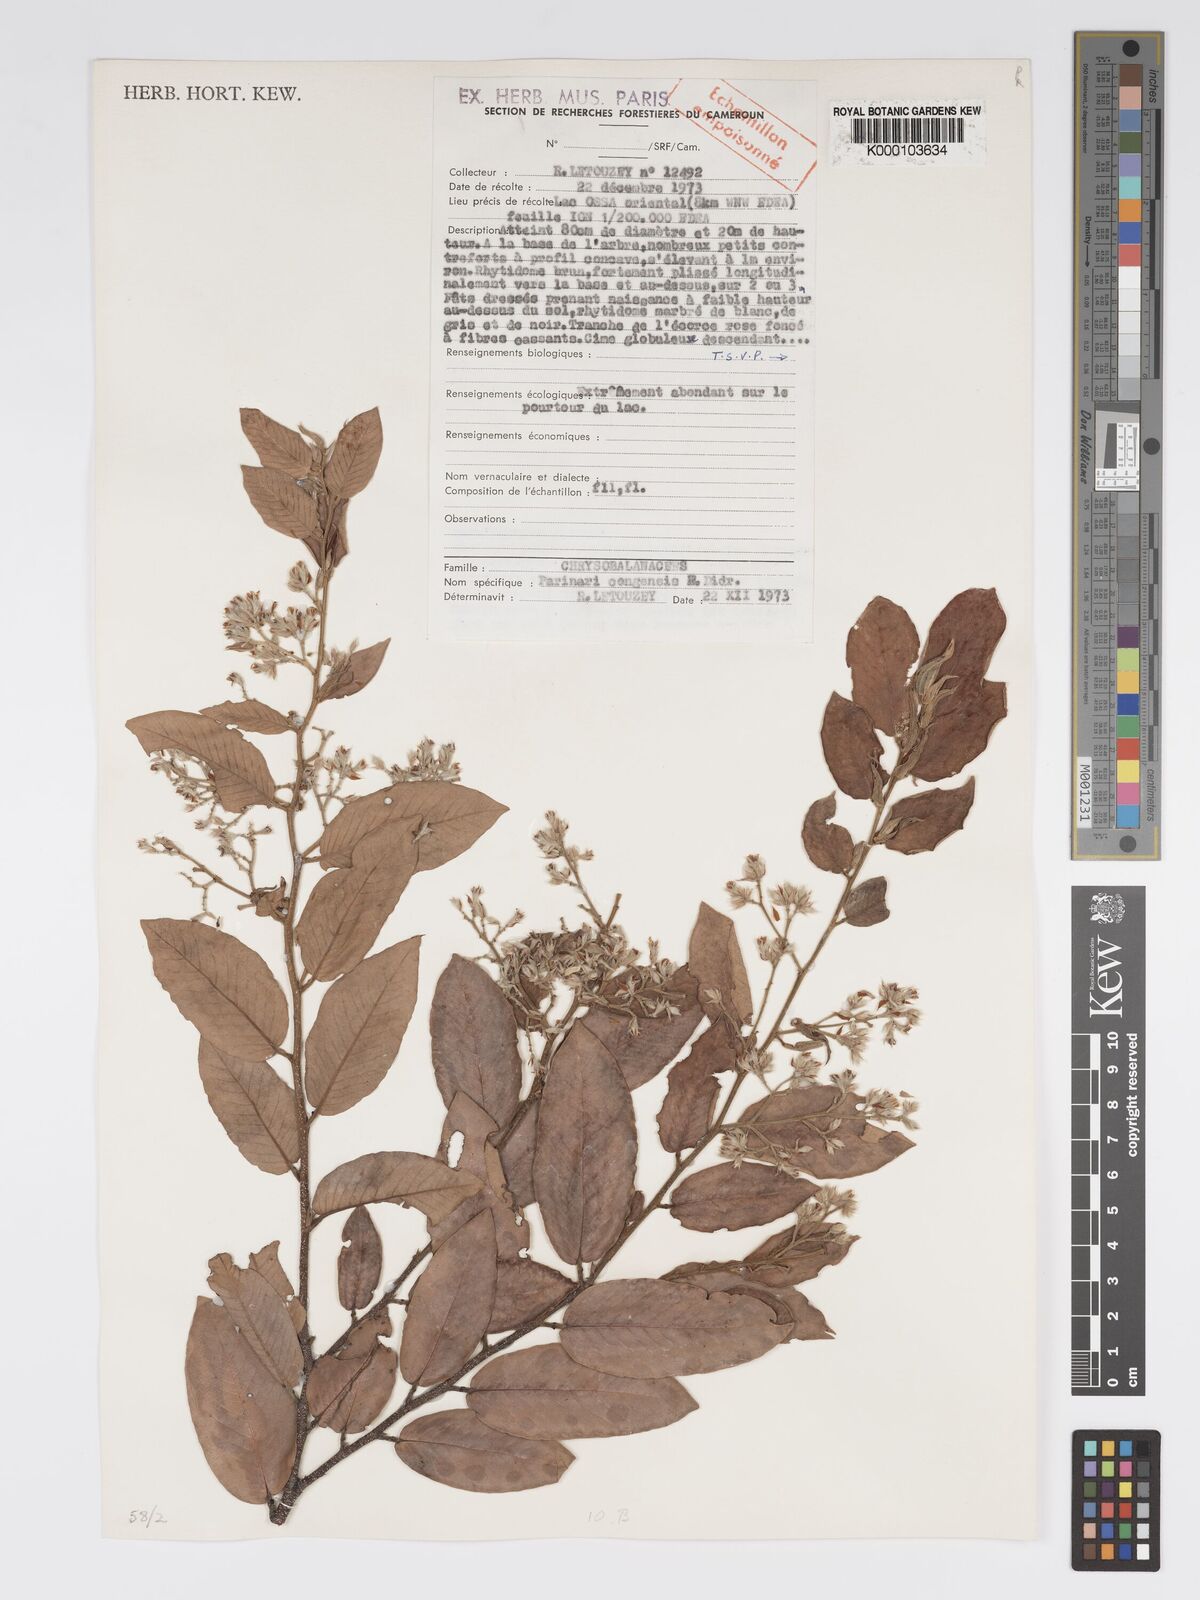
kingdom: Plantae
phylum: Tracheophyta
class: Magnoliopsida
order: Malpighiales
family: Chrysobalanaceae
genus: Parinari
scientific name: Parinari congensis
